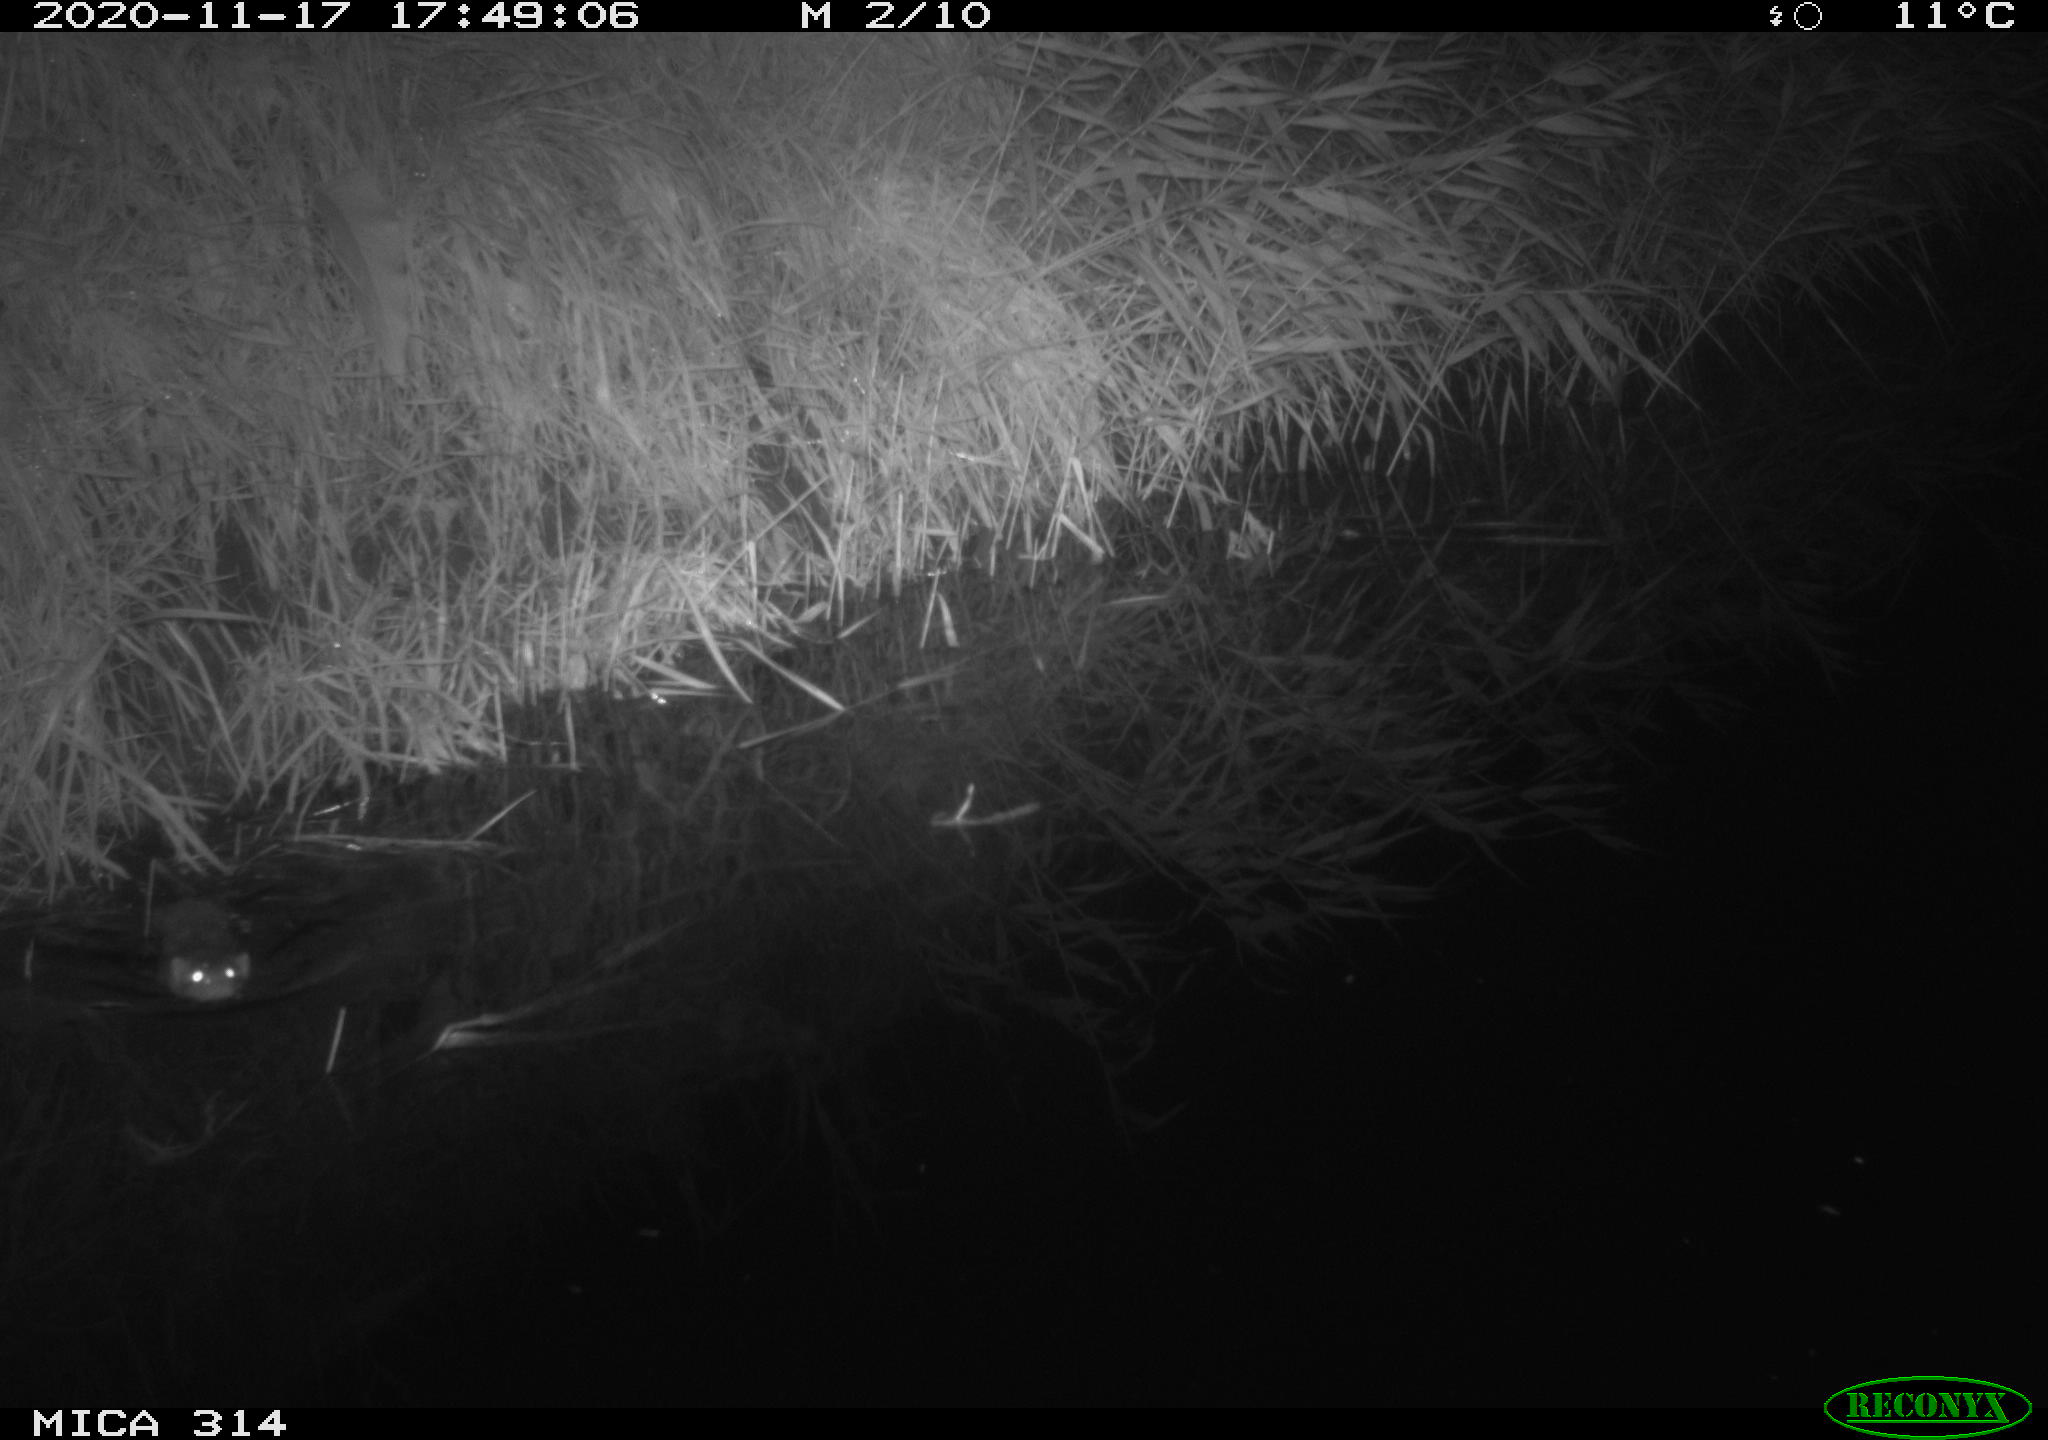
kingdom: Animalia
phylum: Chordata
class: Mammalia
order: Rodentia
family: Muridae
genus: Rattus
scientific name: Rattus norvegicus
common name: Brown rat
